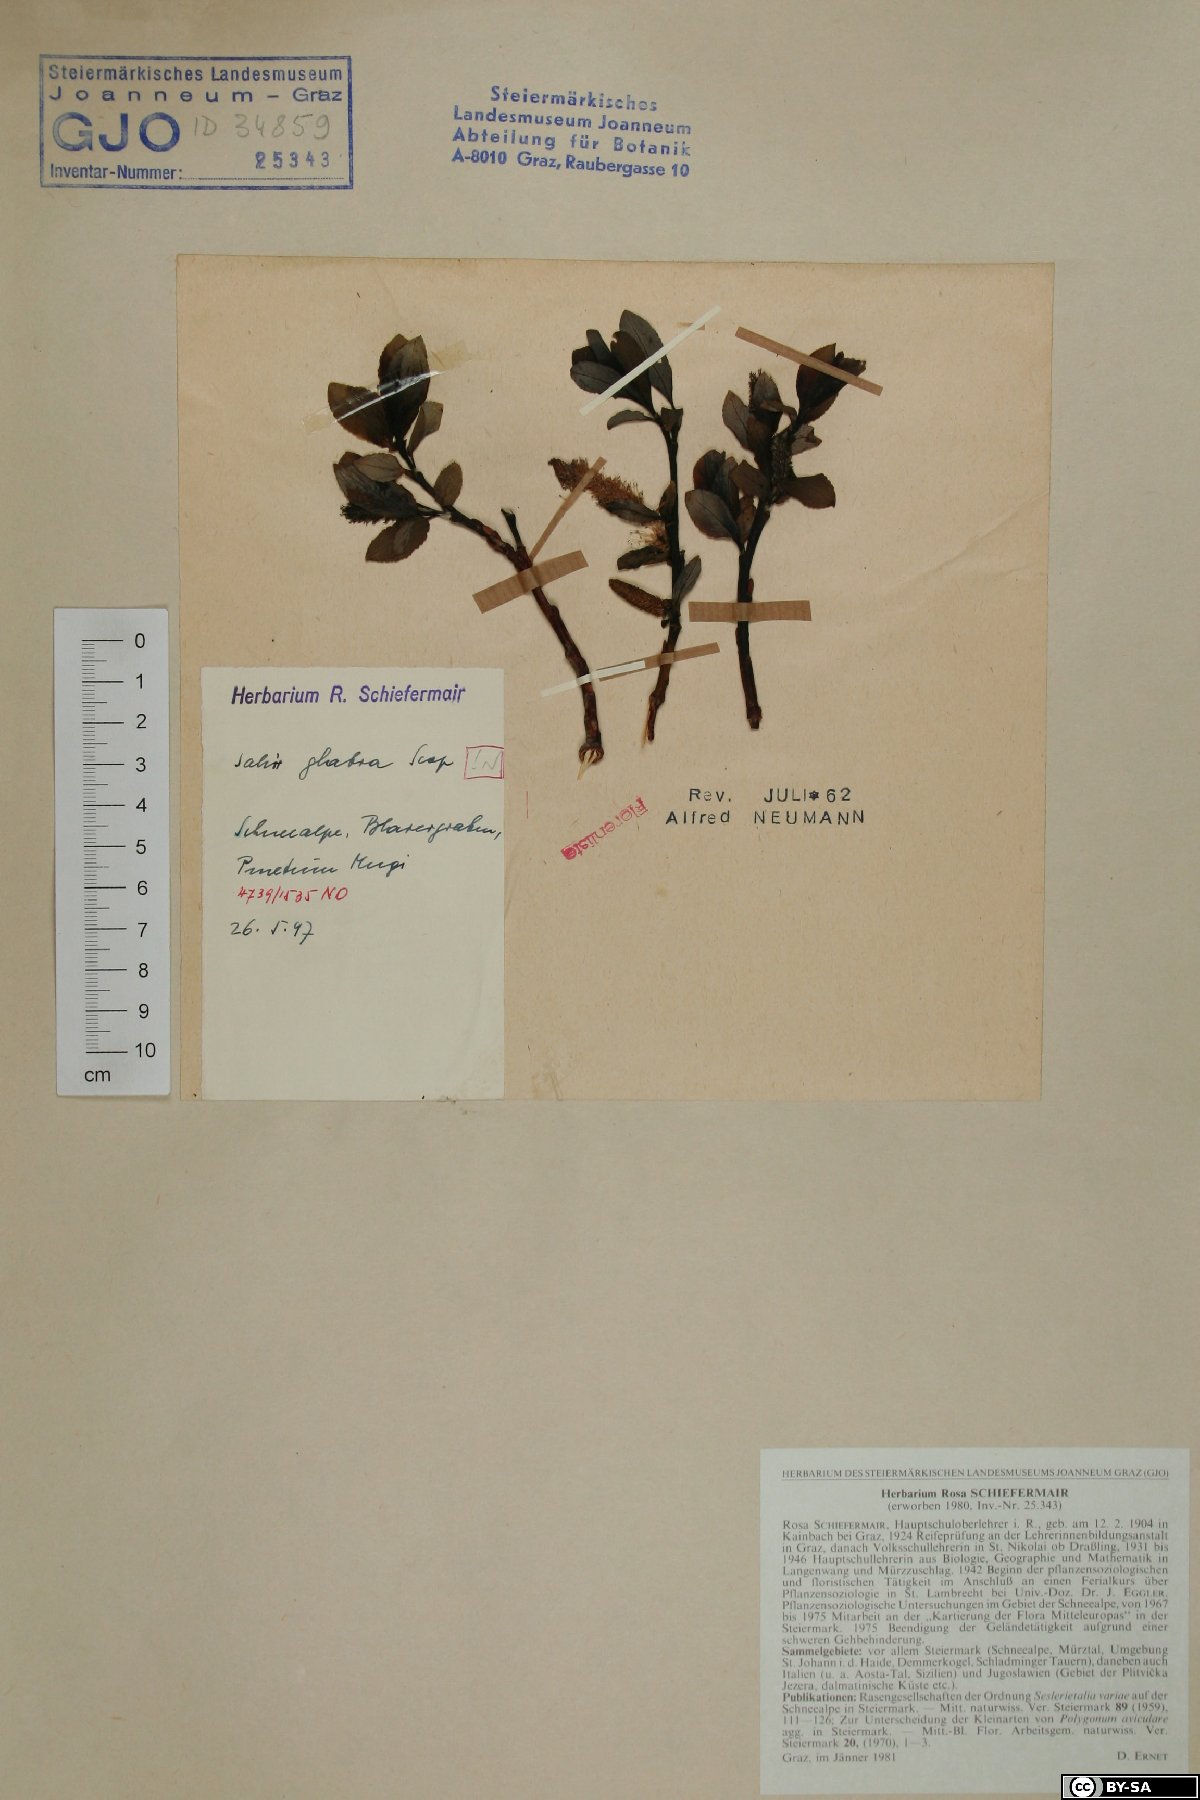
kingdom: Plantae
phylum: Tracheophyta
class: Magnoliopsida
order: Malpighiales
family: Salicaceae
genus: Salix
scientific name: Salix glabra
